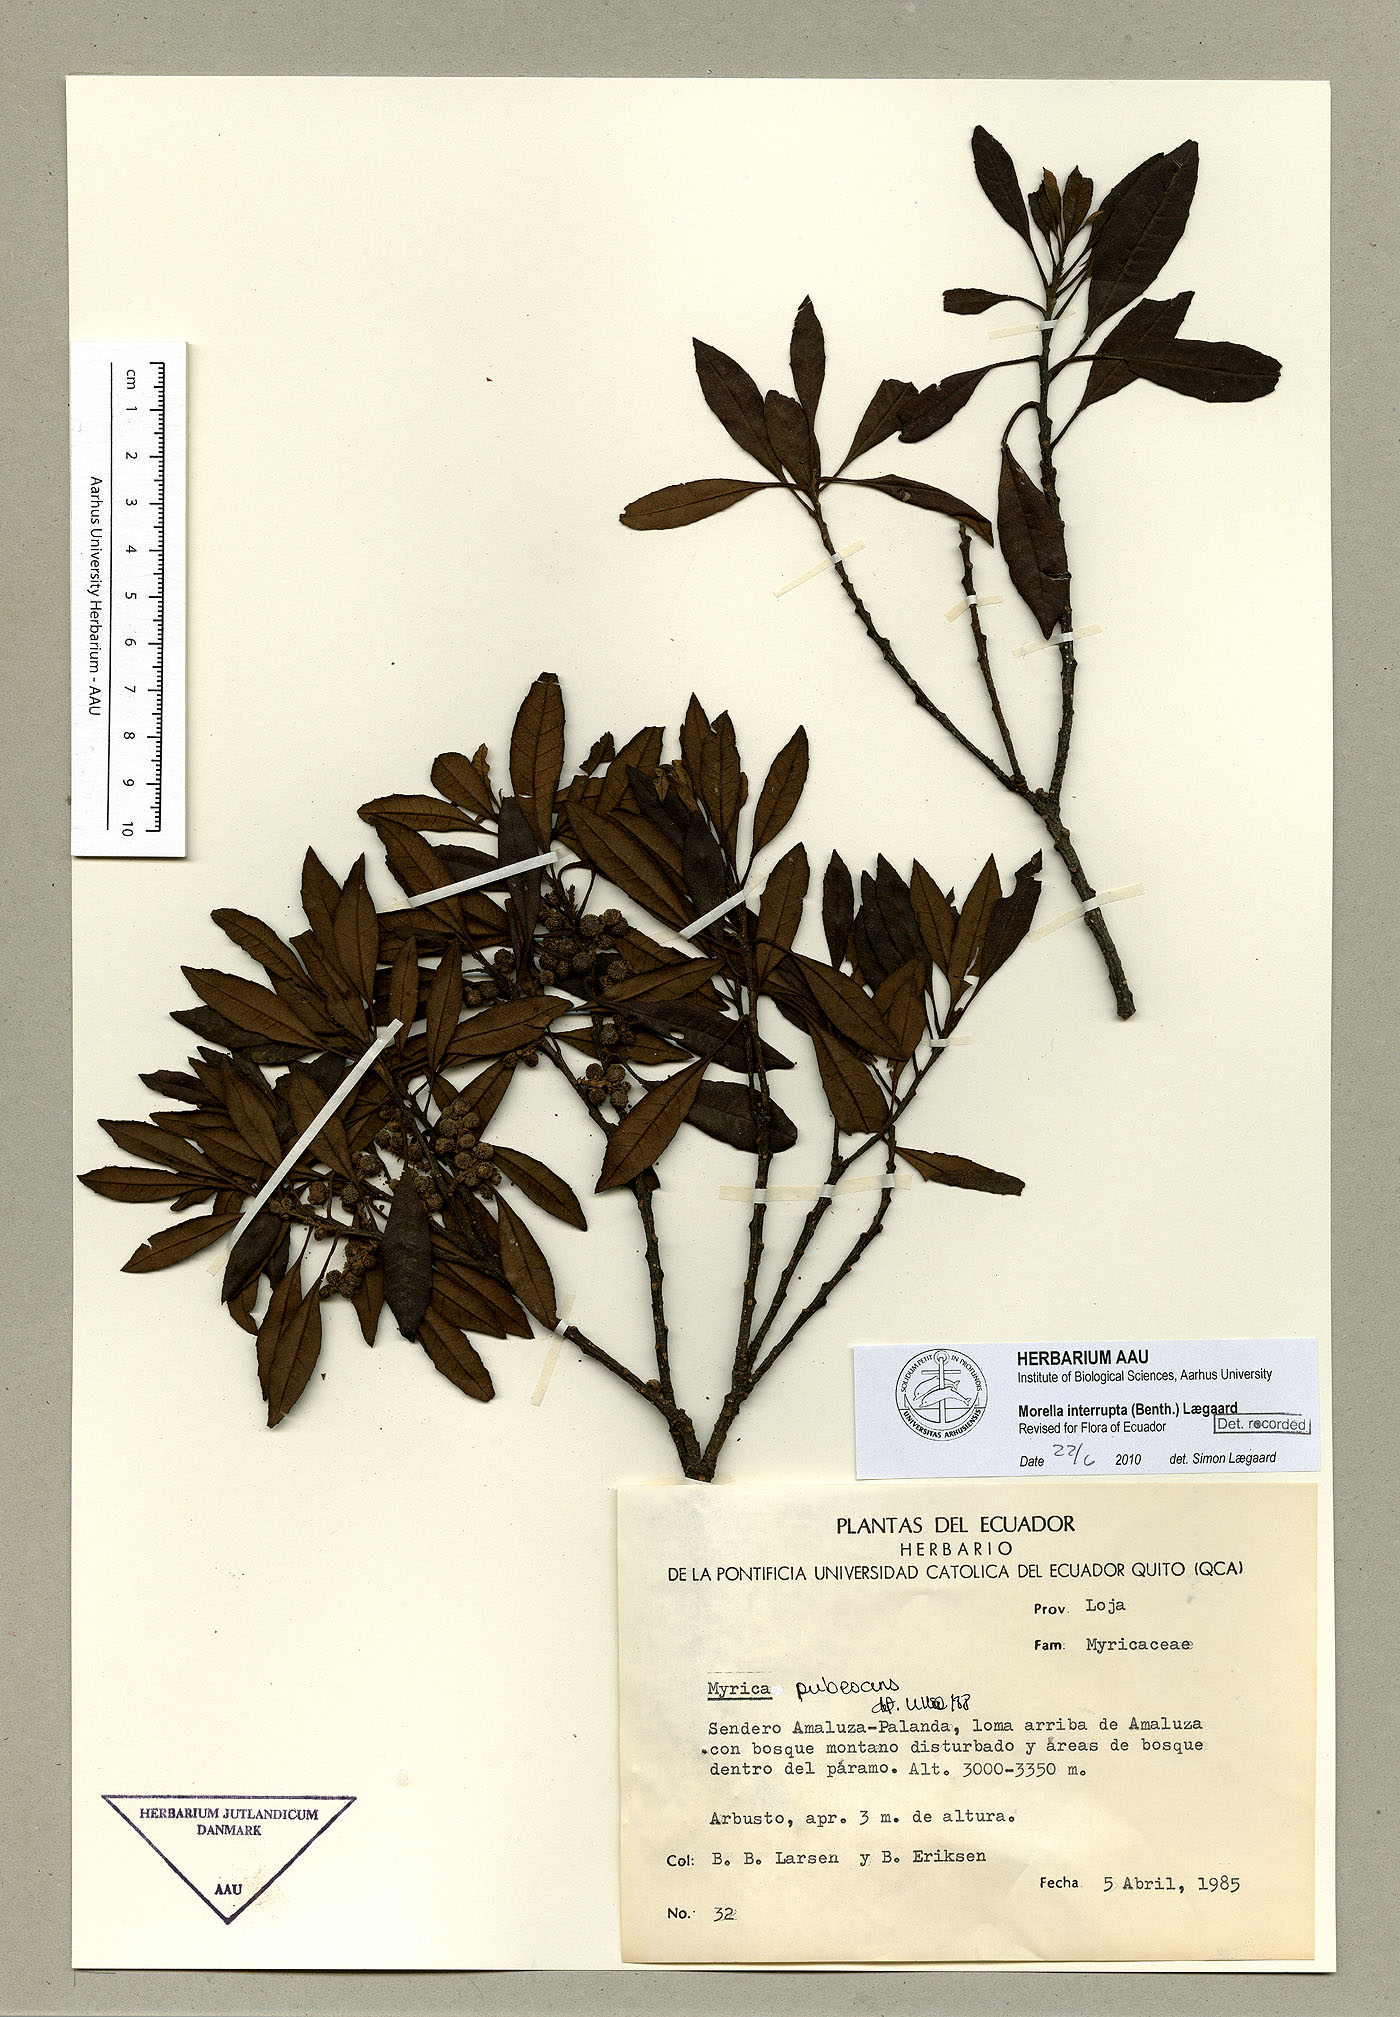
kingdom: Plantae
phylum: Tracheophyta
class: Magnoliopsida
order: Fagales
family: Myricaceae
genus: Morella
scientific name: Morella interrupta
